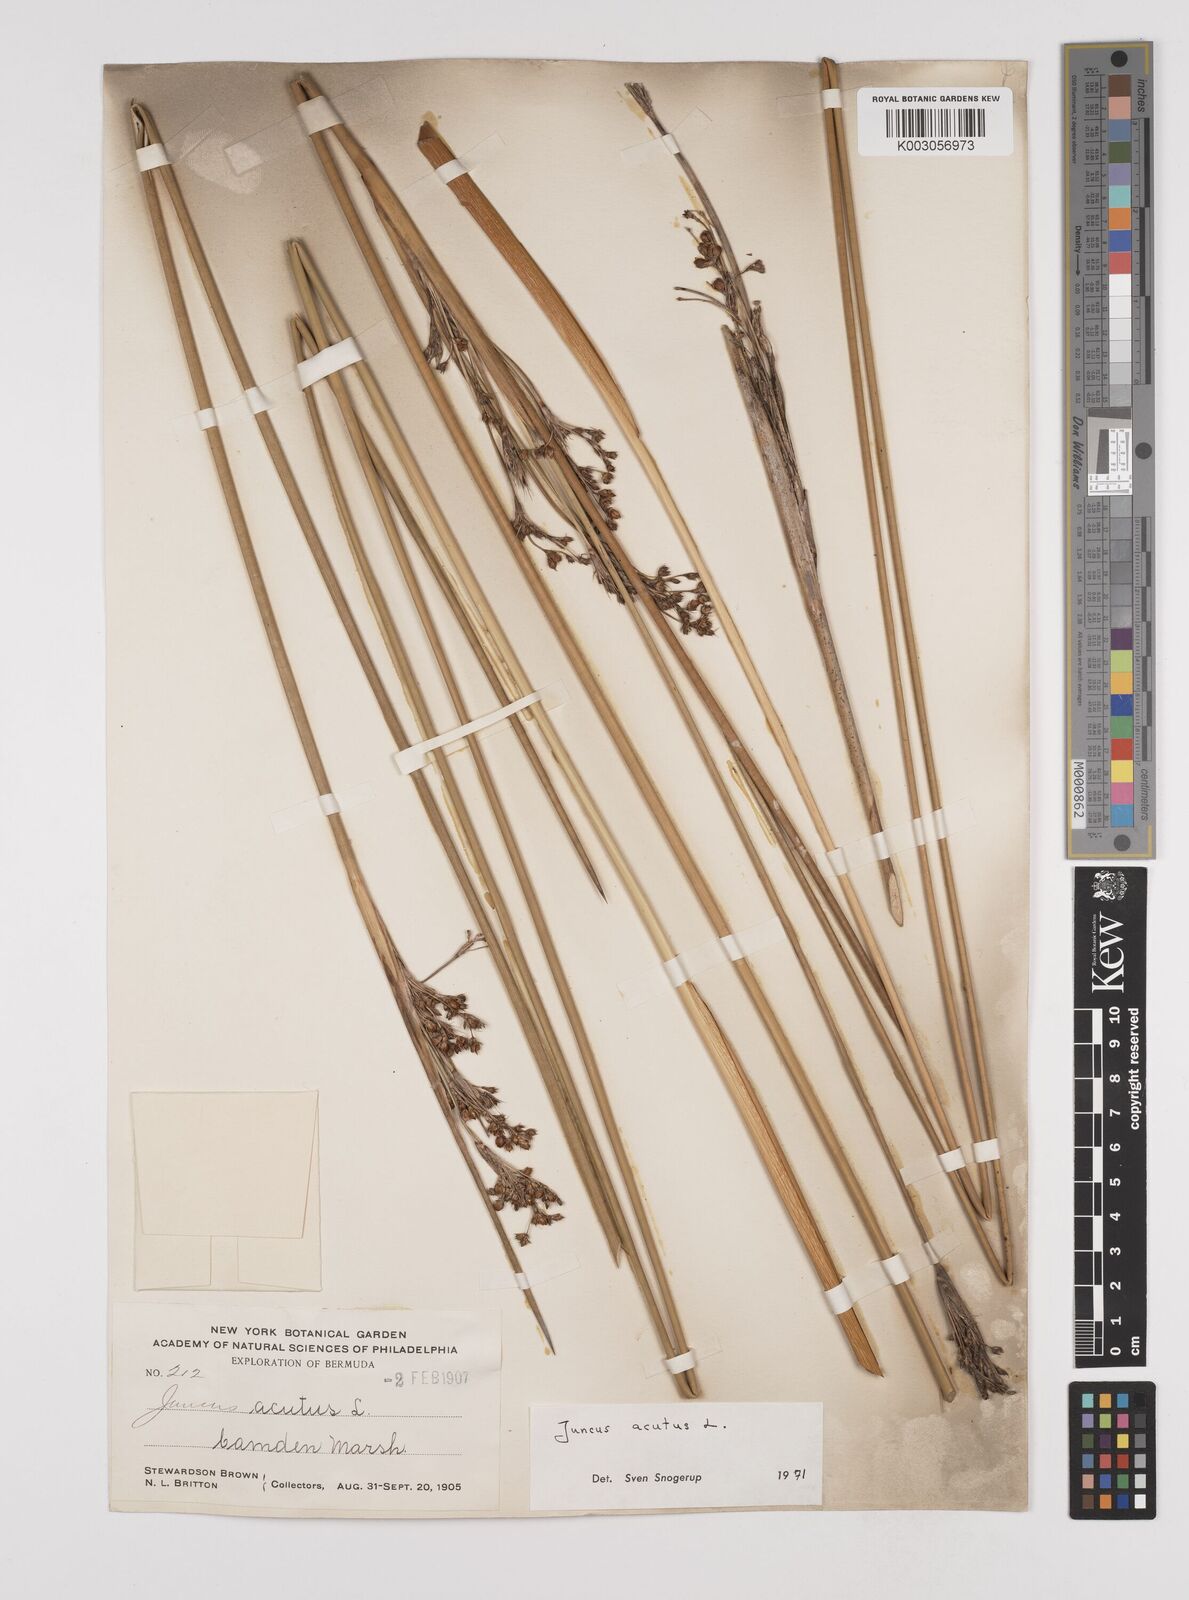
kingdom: Plantae
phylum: Tracheophyta
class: Liliopsida
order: Poales
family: Juncaceae
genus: Juncus
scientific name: Juncus acutus
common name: Sharp rush
